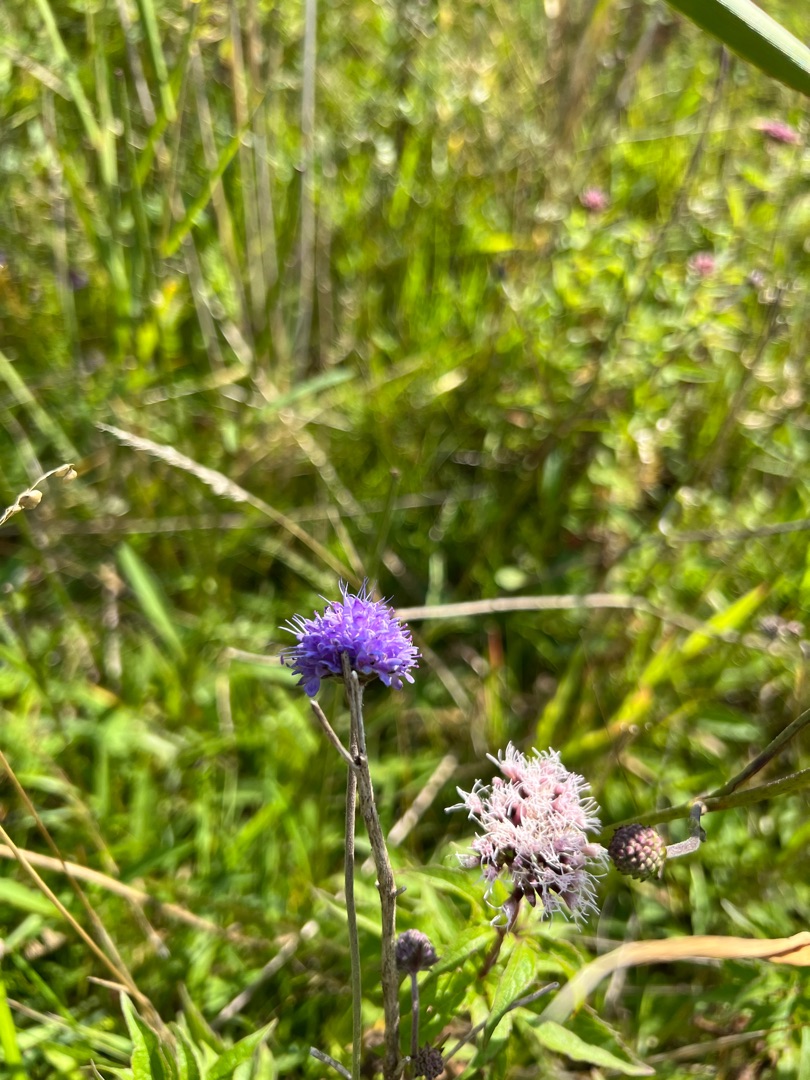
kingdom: Plantae
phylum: Tracheophyta
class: Magnoliopsida
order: Dipsacales
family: Caprifoliaceae
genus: Succisa
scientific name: Succisa pratensis
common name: Djævelsbid
